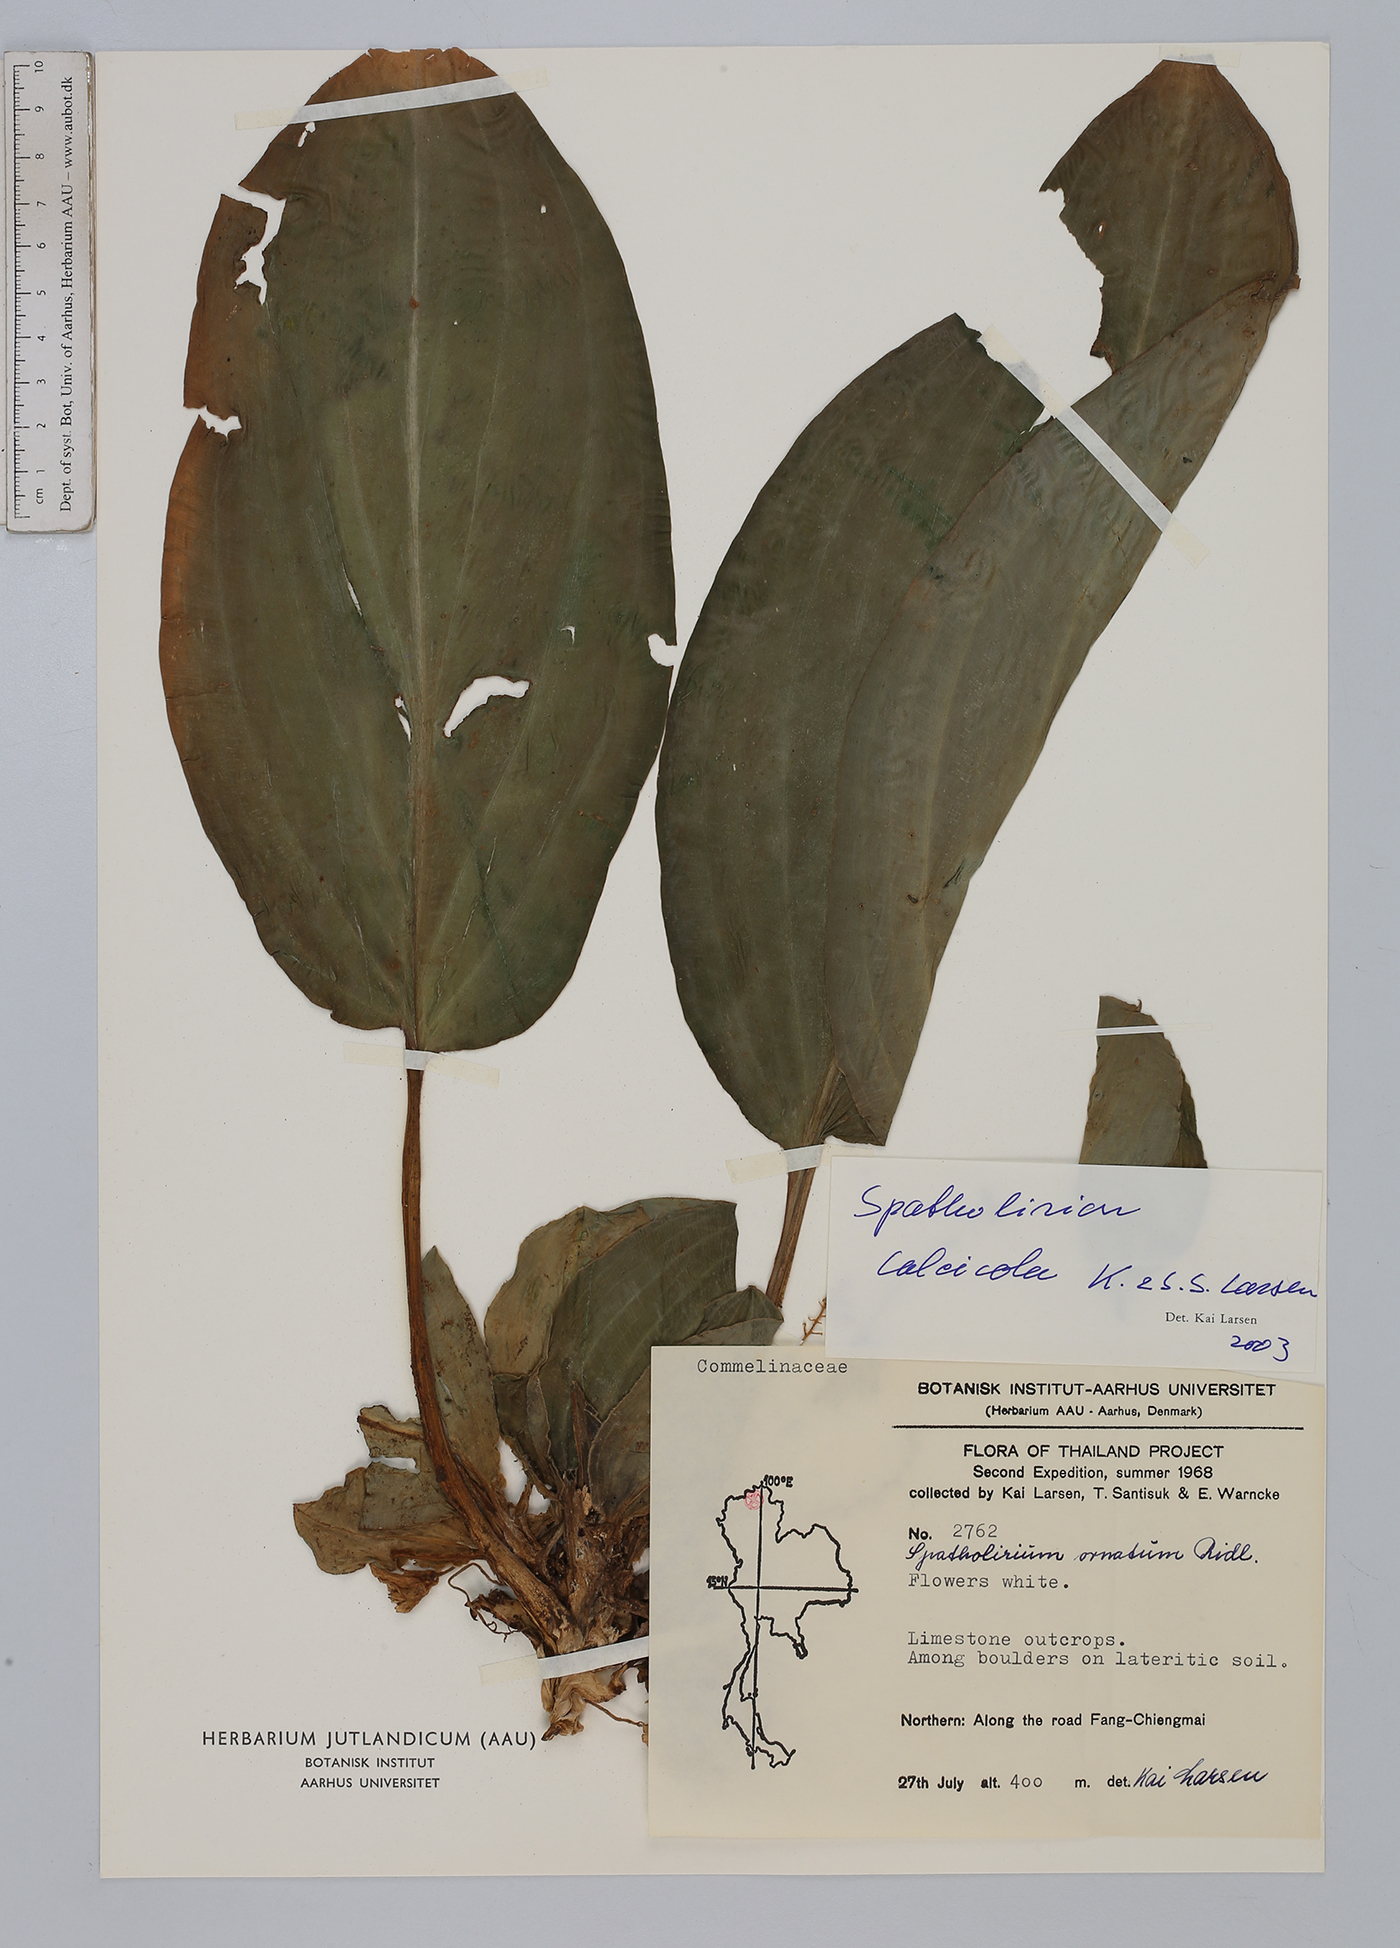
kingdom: Plantae
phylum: Tracheophyta
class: Liliopsida
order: Commelinales
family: Commelinaceae
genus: Spatholirion
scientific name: Spatholirion calcicola
